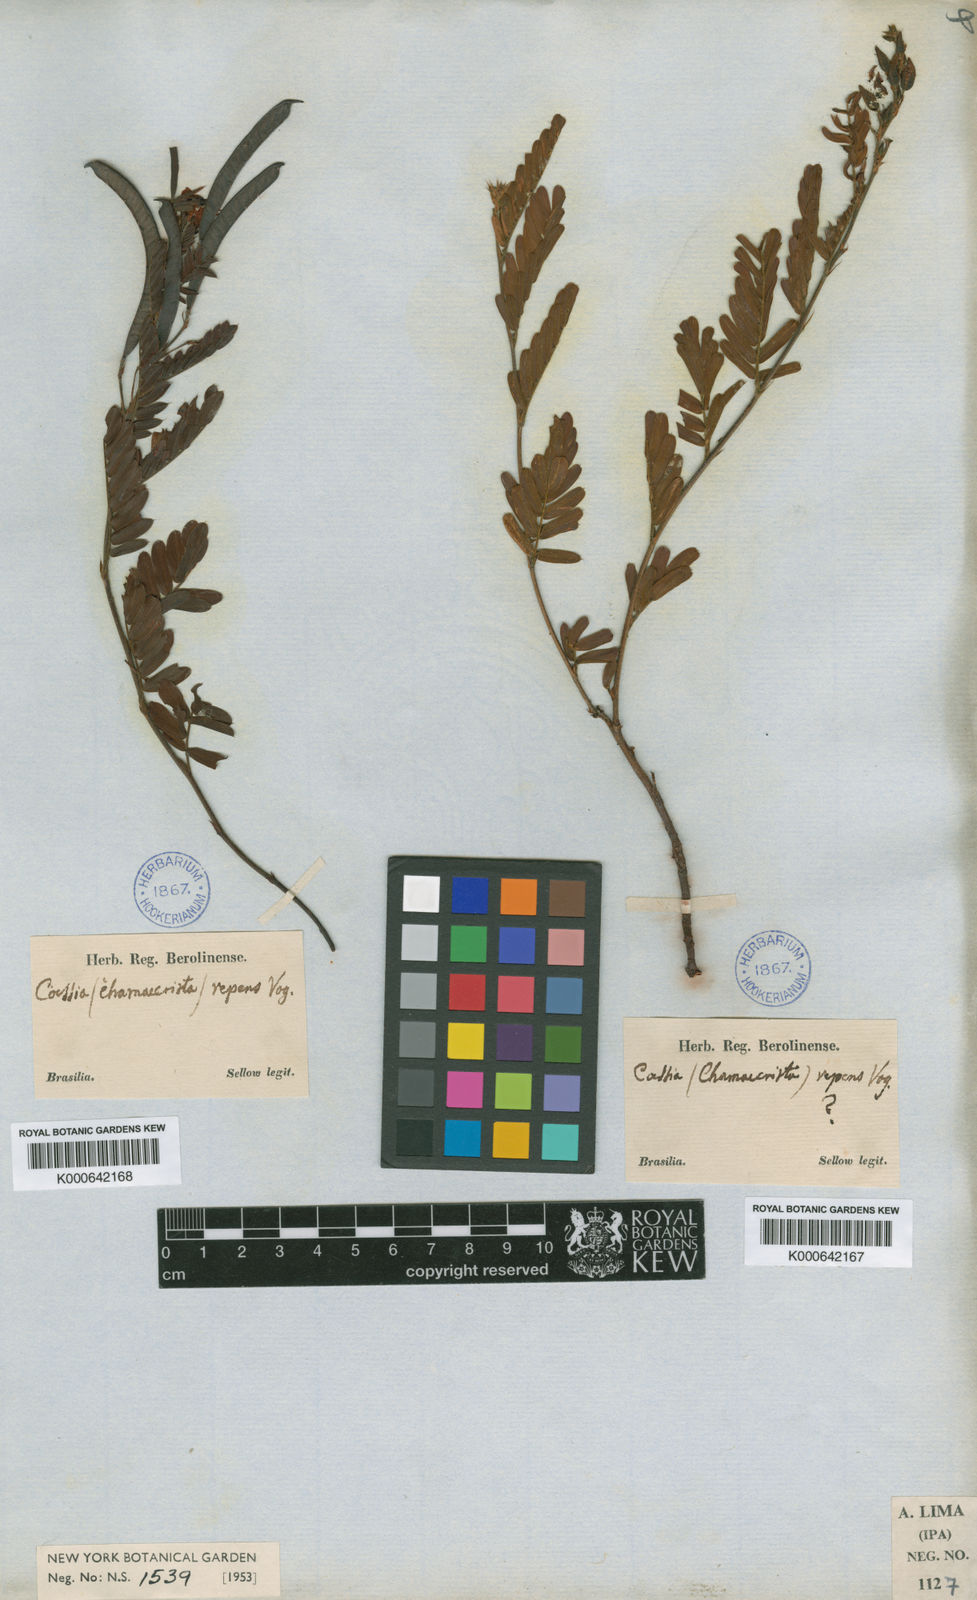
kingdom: Plantae
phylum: Tracheophyta
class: Magnoliopsida
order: Fabales
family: Fabaceae
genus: Chamaecrista
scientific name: Chamaecrista repens
